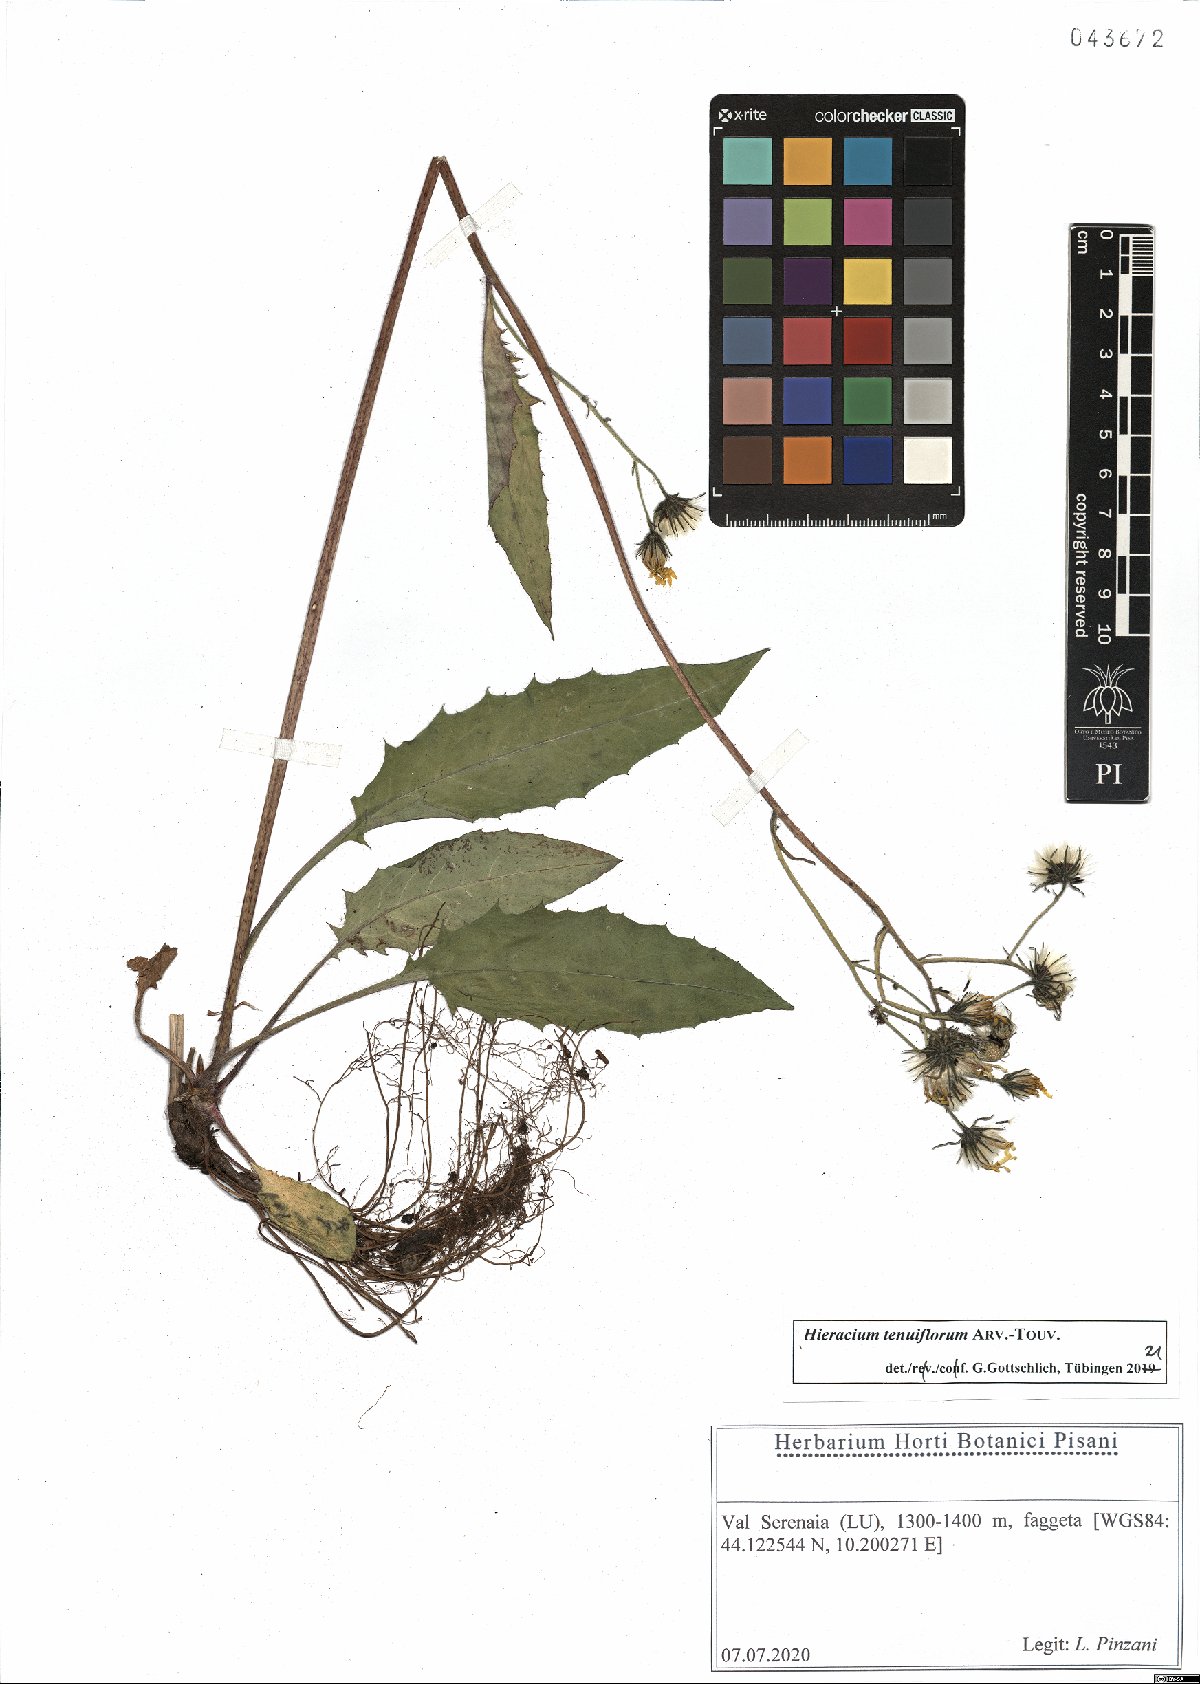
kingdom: Plantae
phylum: Tracheophyta
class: Magnoliopsida
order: Asterales
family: Asteraceae
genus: Hieracium
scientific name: Hieracium tenuiflorum
